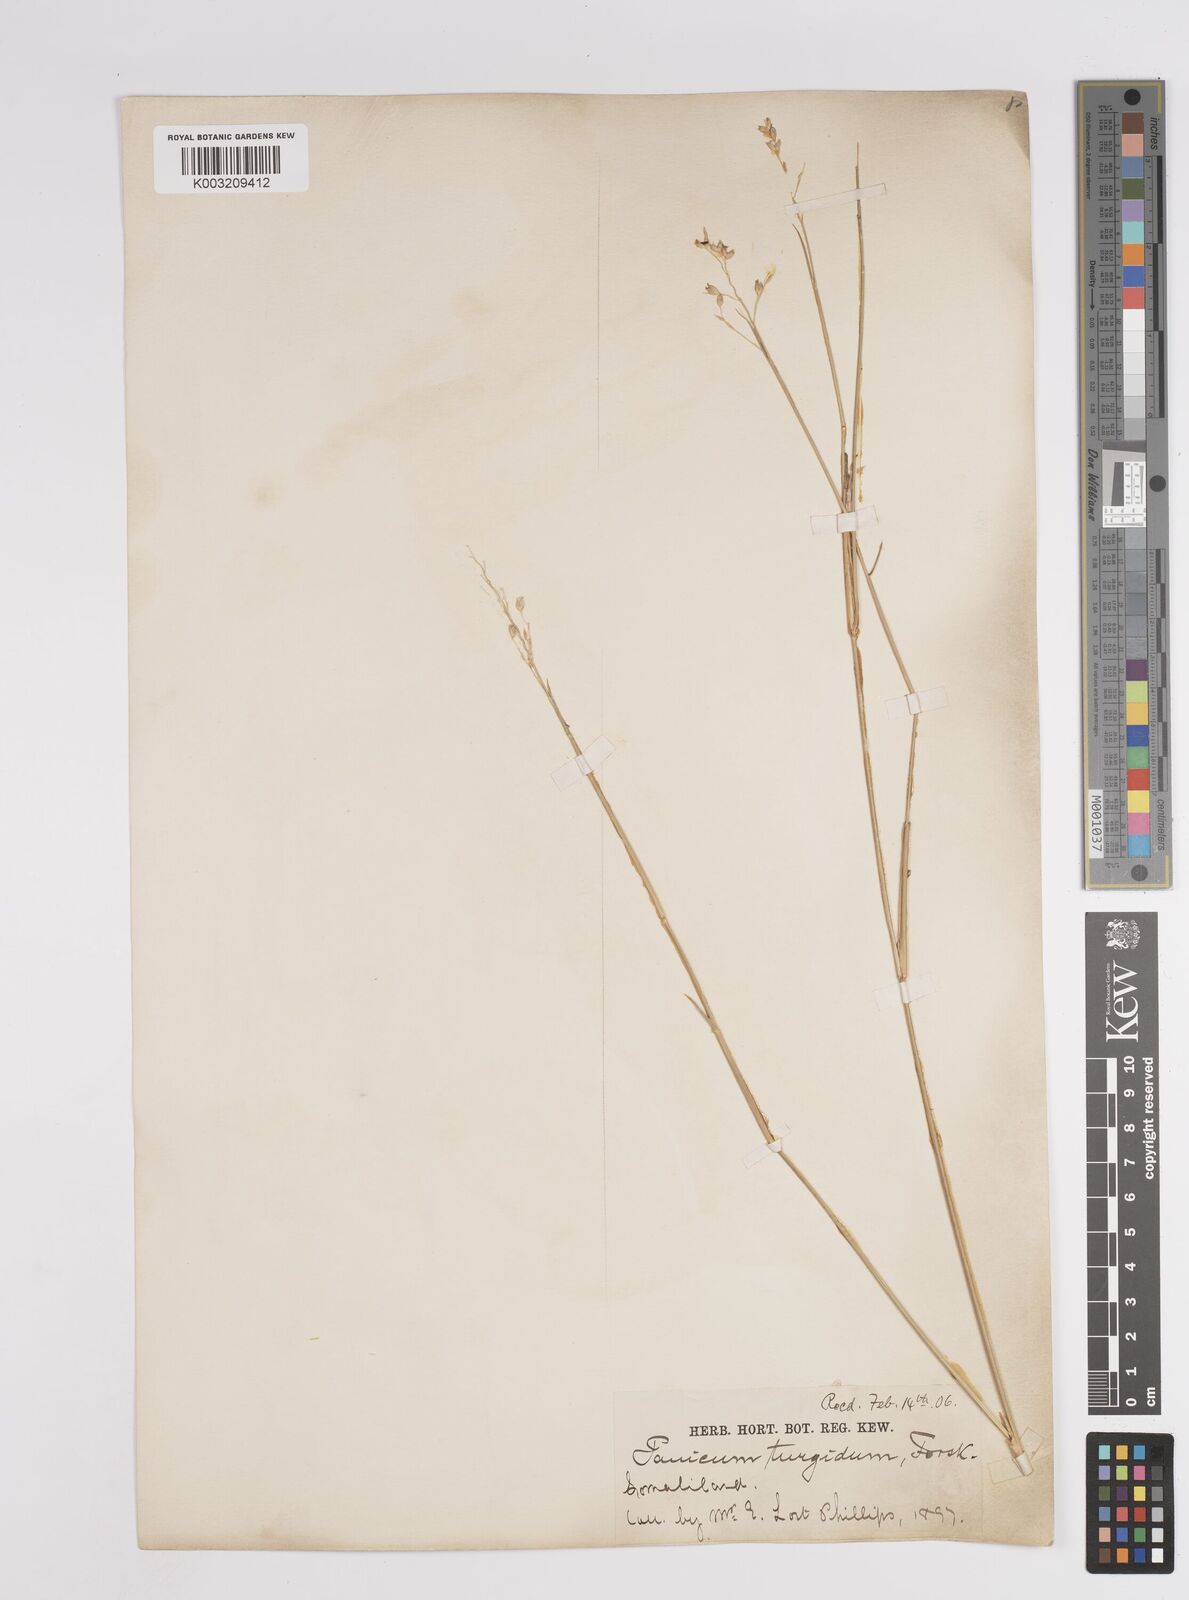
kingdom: Plantae
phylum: Tracheophyta
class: Liliopsida
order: Poales
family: Poaceae
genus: Panicum
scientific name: Panicum turgidum
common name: Desert grass
